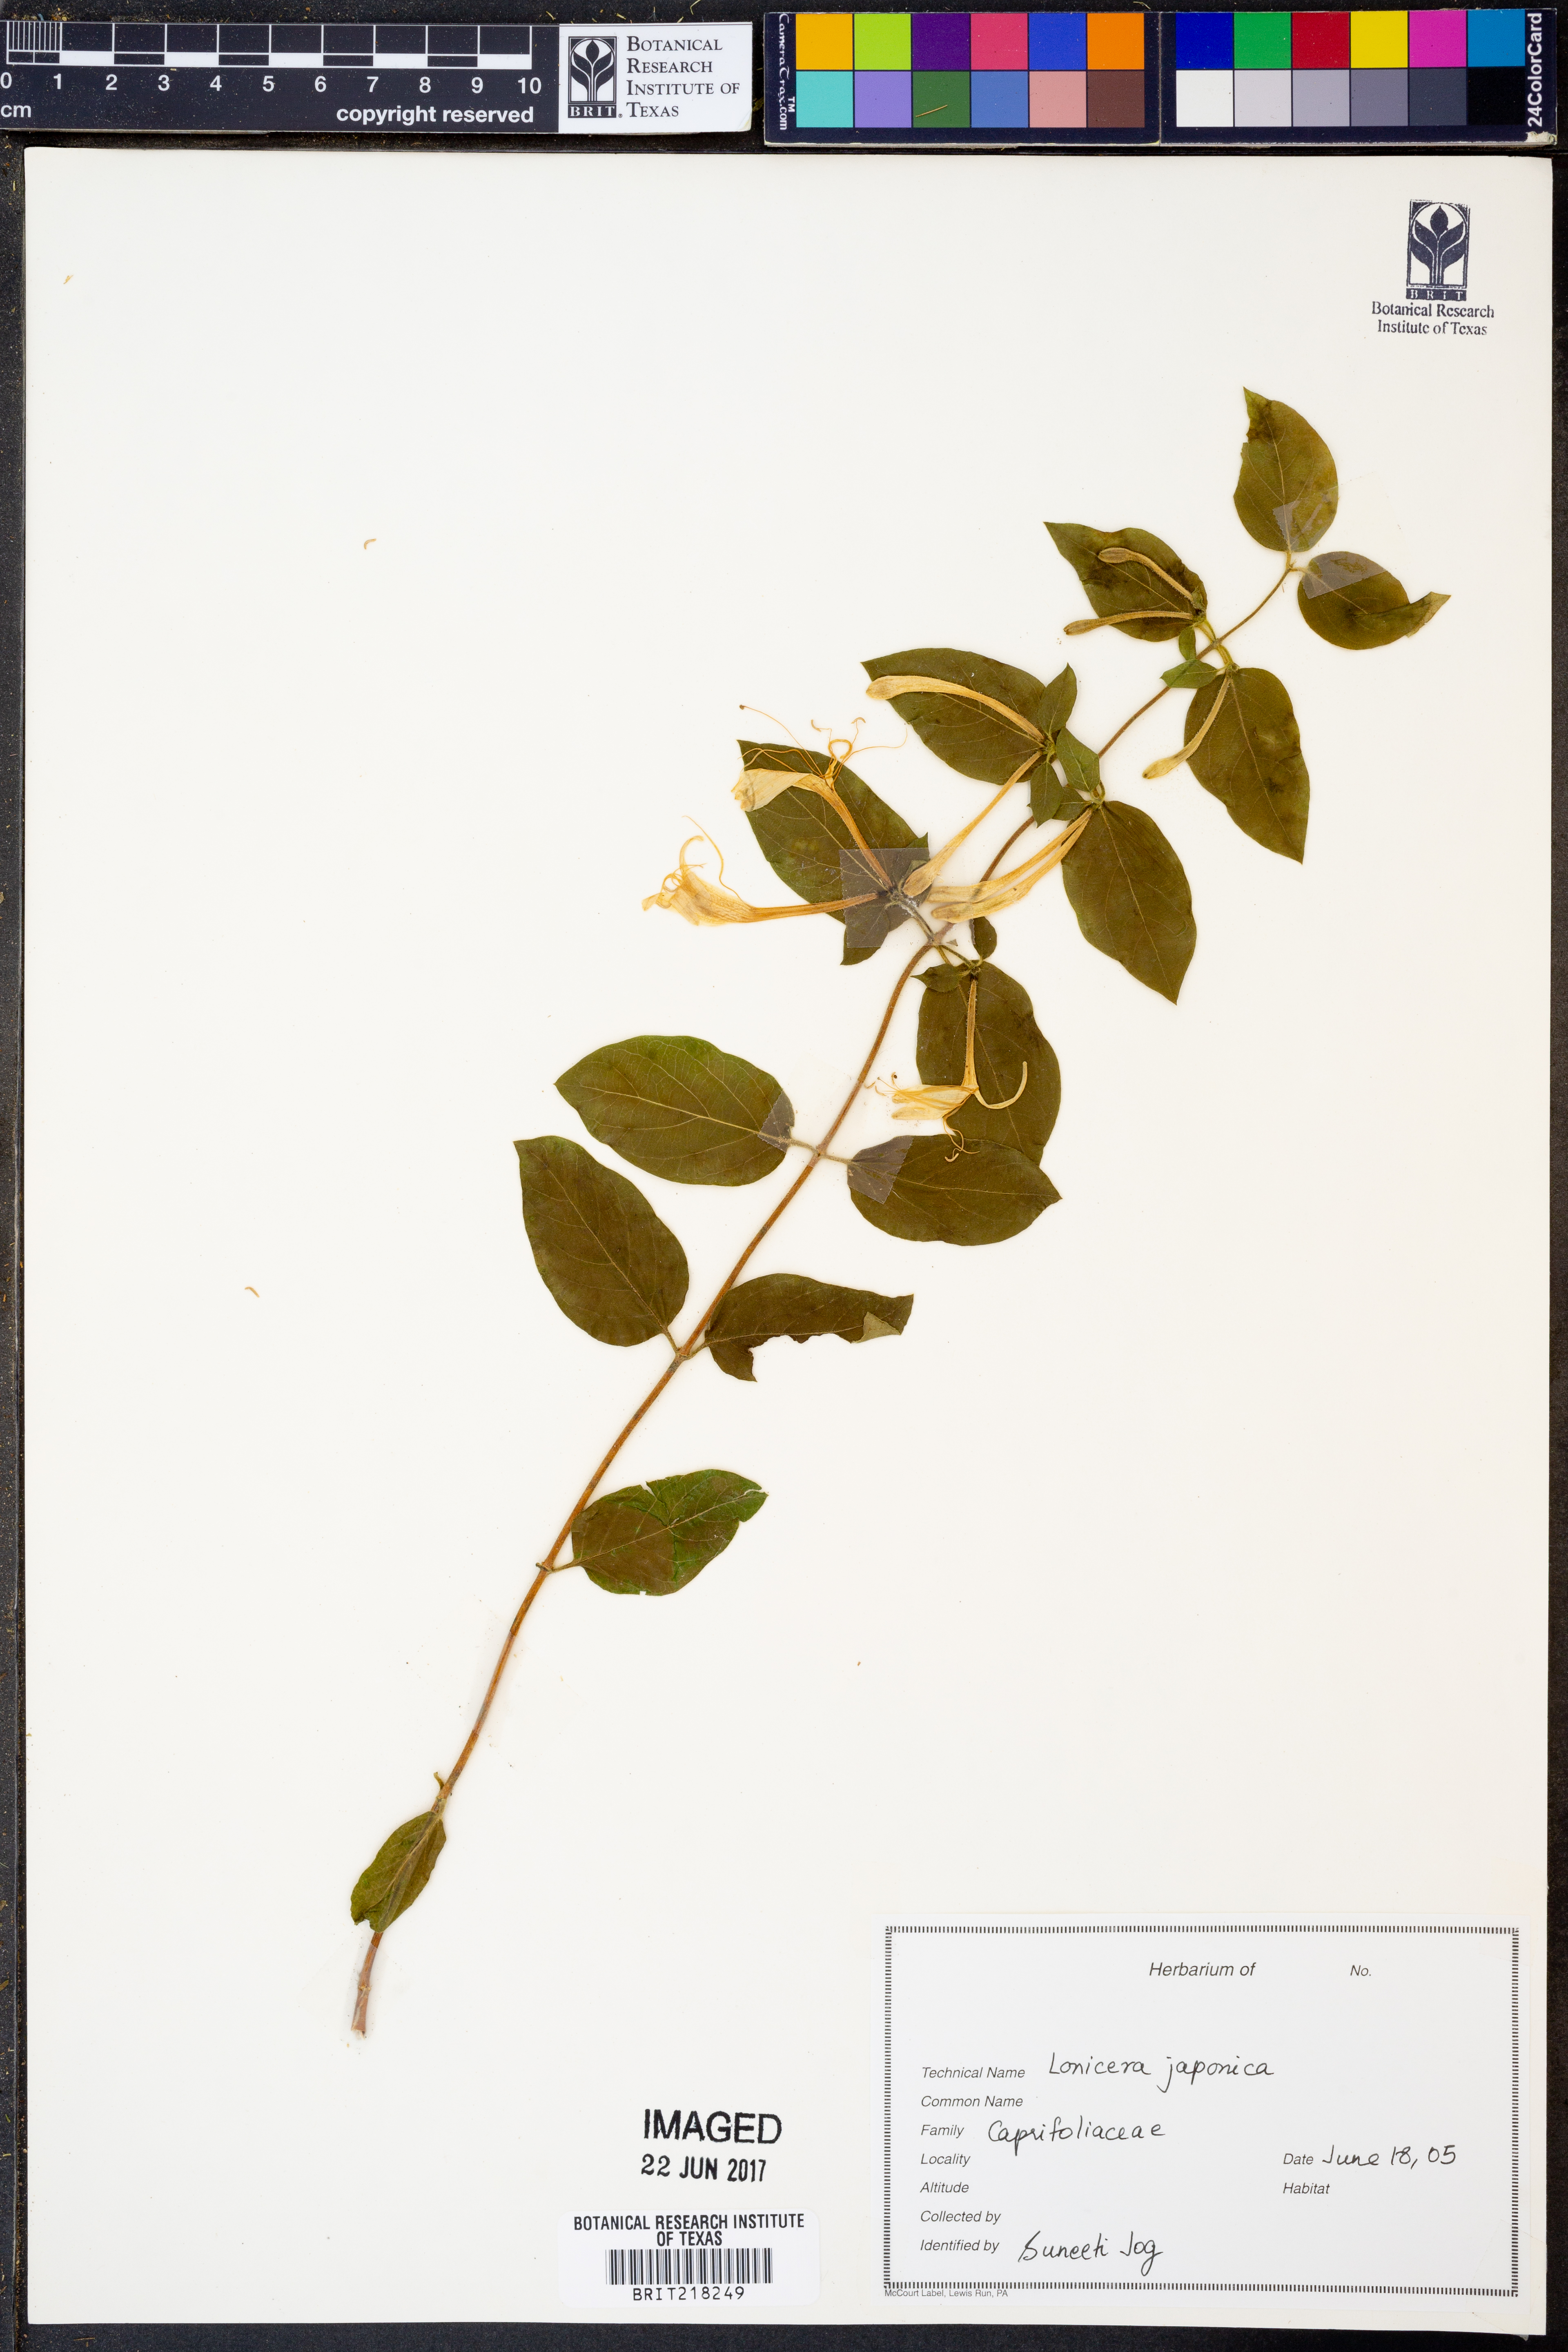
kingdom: Plantae
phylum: Tracheophyta
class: Magnoliopsida
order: Dipsacales
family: Caprifoliaceae
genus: Lonicera
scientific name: Lonicera japonica
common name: Japanese honeysuckle
